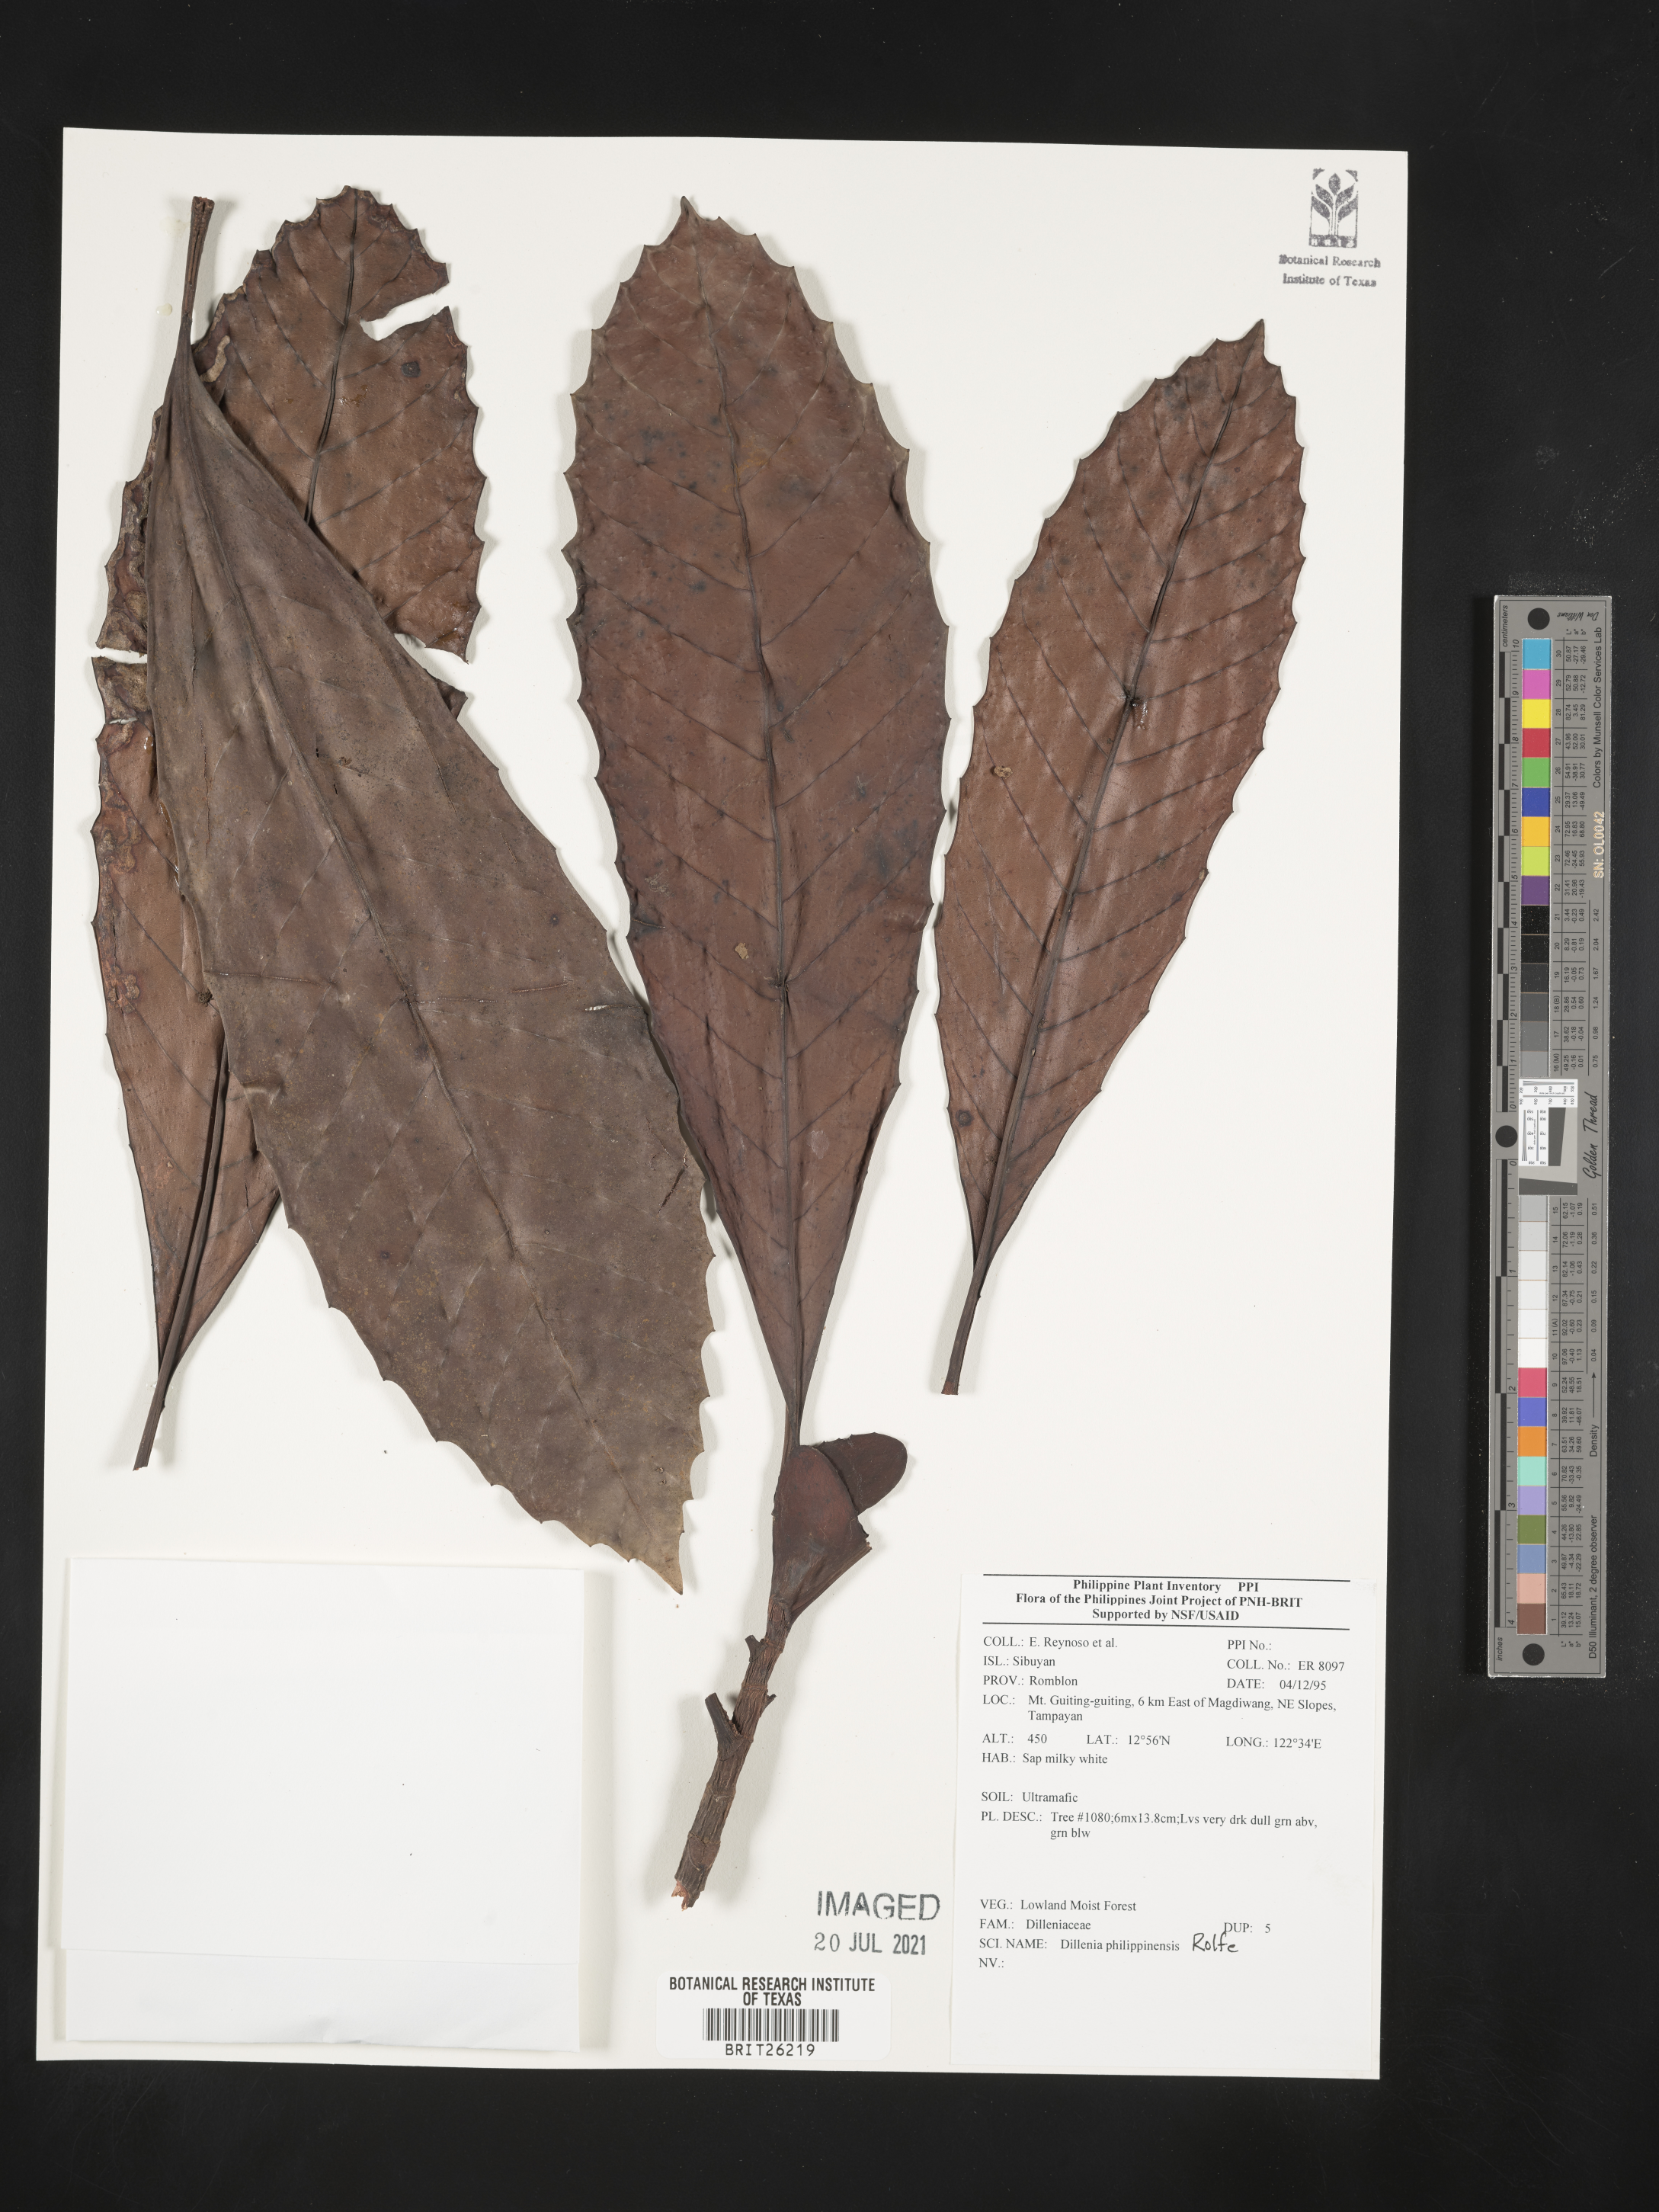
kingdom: Plantae
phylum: Tracheophyta
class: Magnoliopsida
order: Dilleniales
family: Dilleniaceae
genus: Dillenia
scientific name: Dillenia philippinensis
